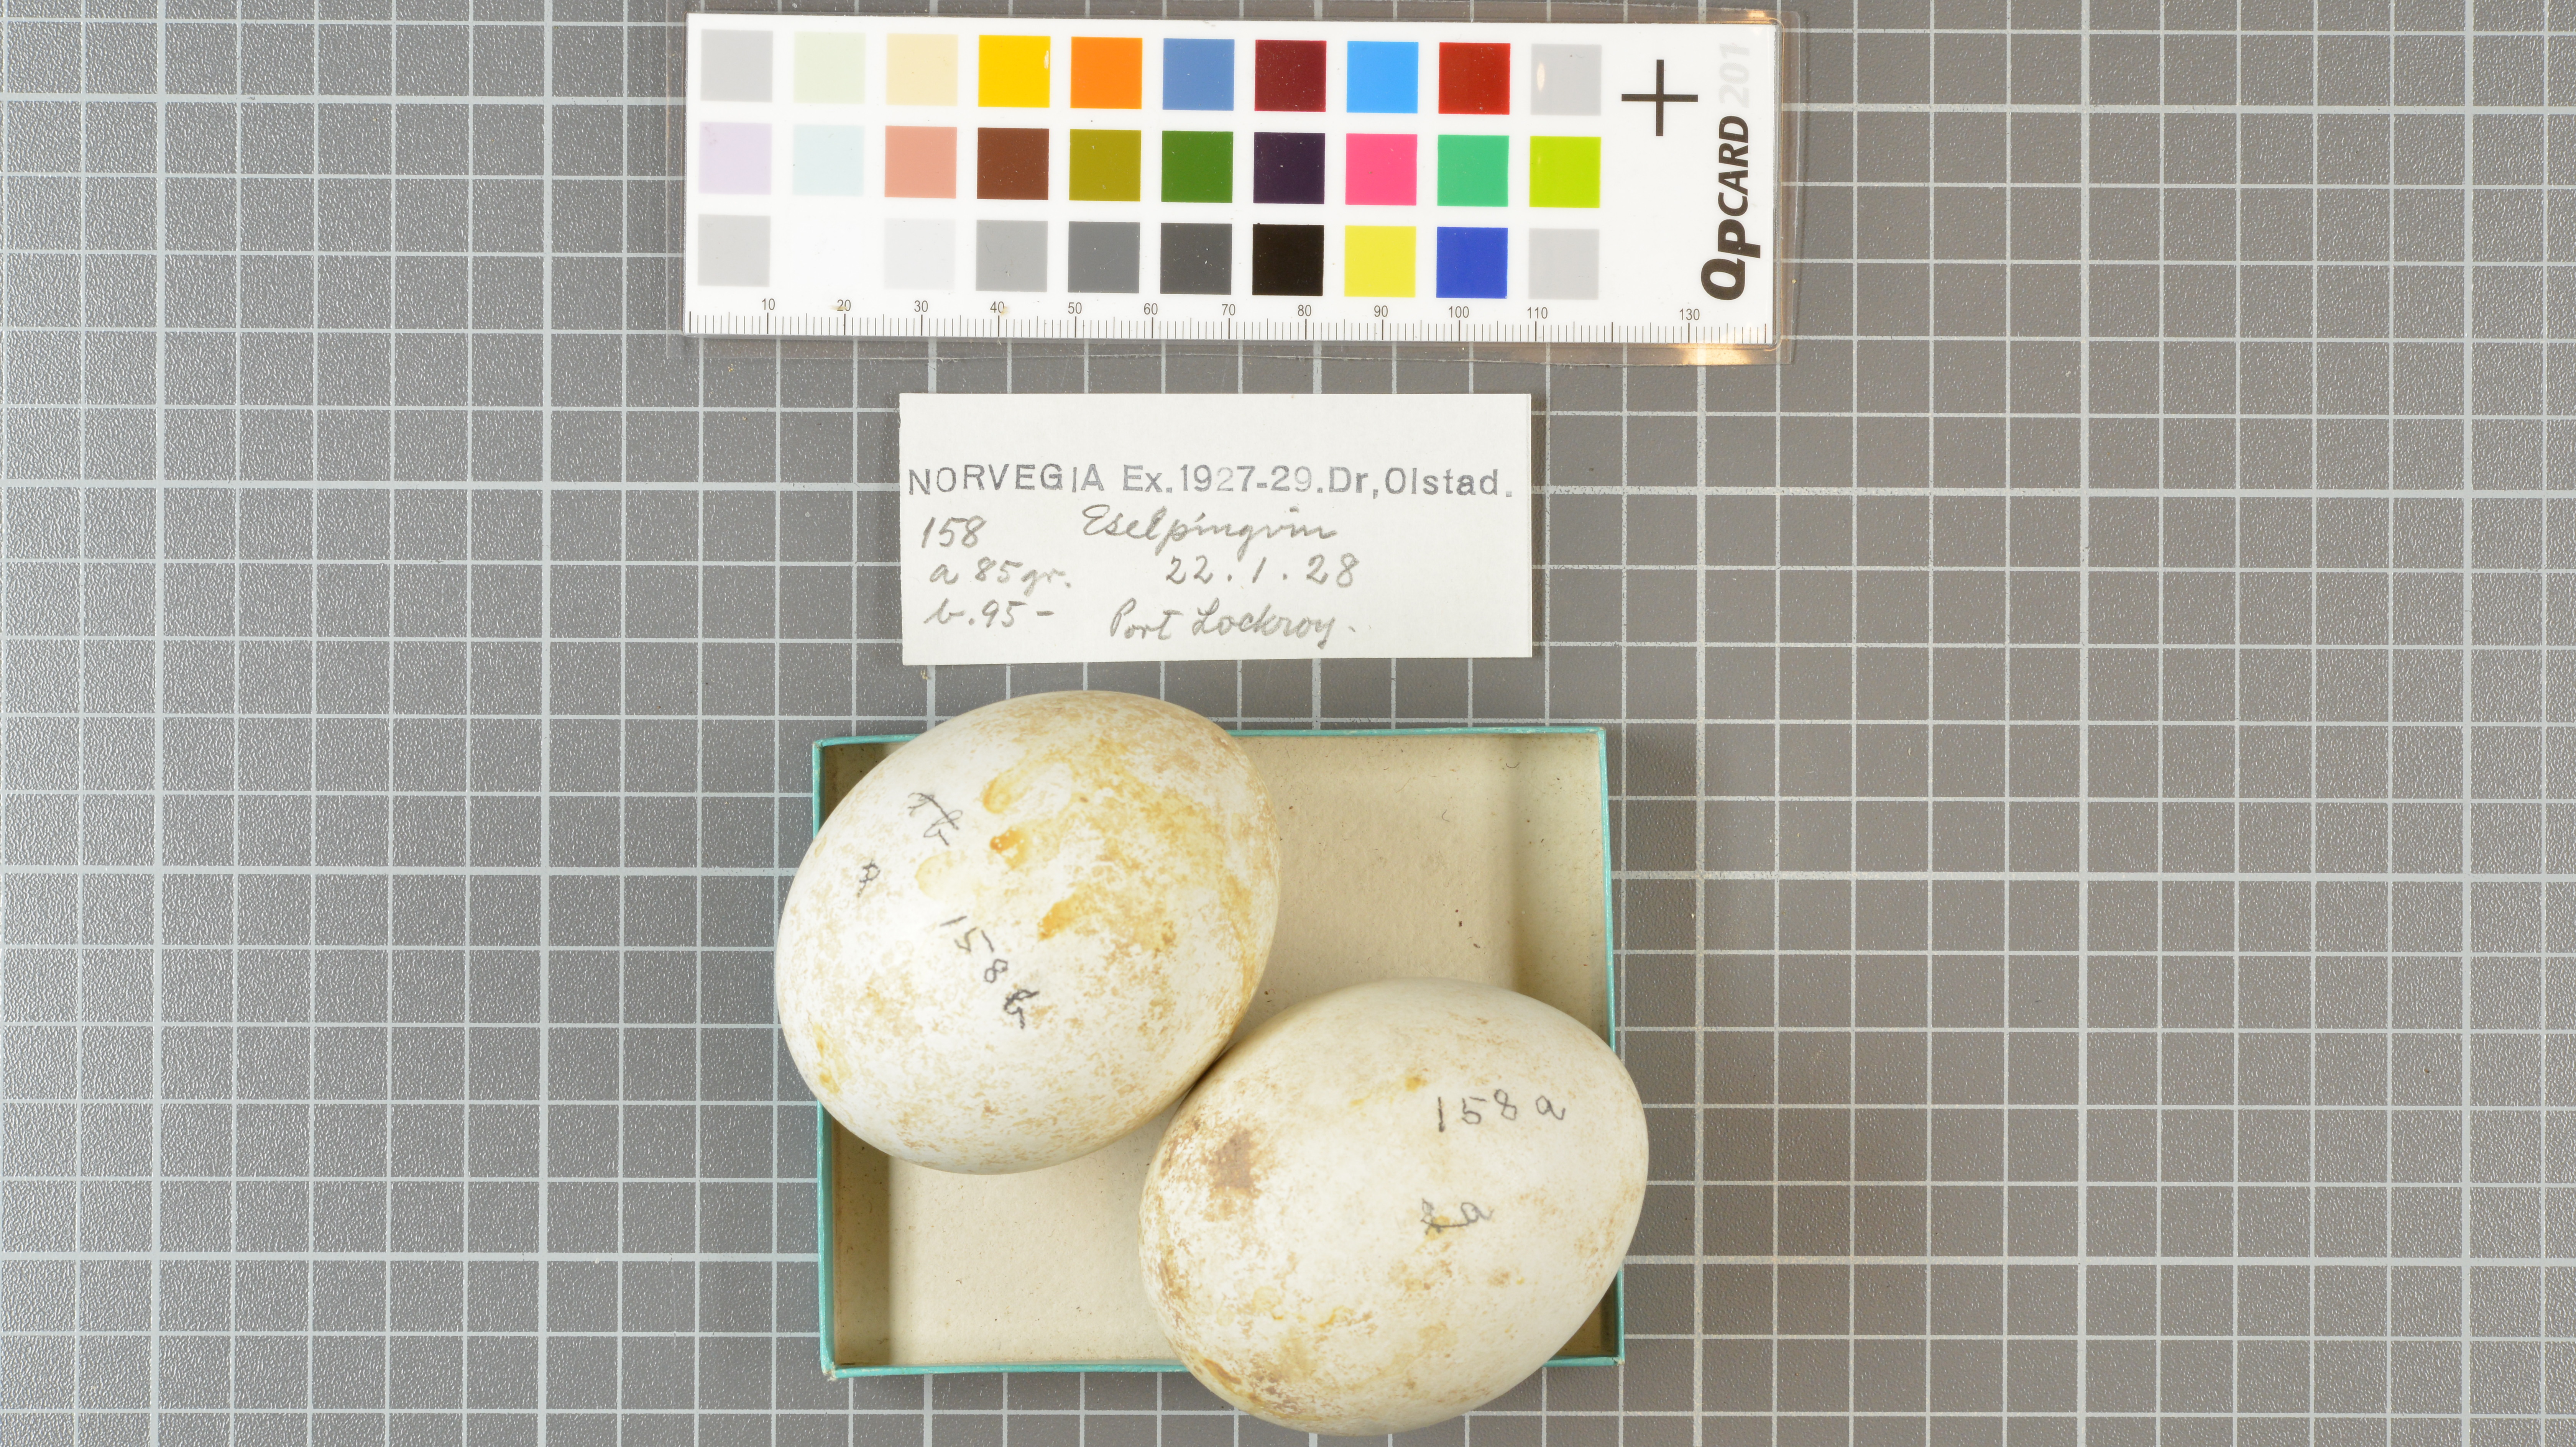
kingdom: Animalia
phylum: Chordata
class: Aves
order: Sphenisciformes
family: Spheniscidae
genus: Pygoscelis
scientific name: Pygoscelis papua
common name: Gentoo penguin
